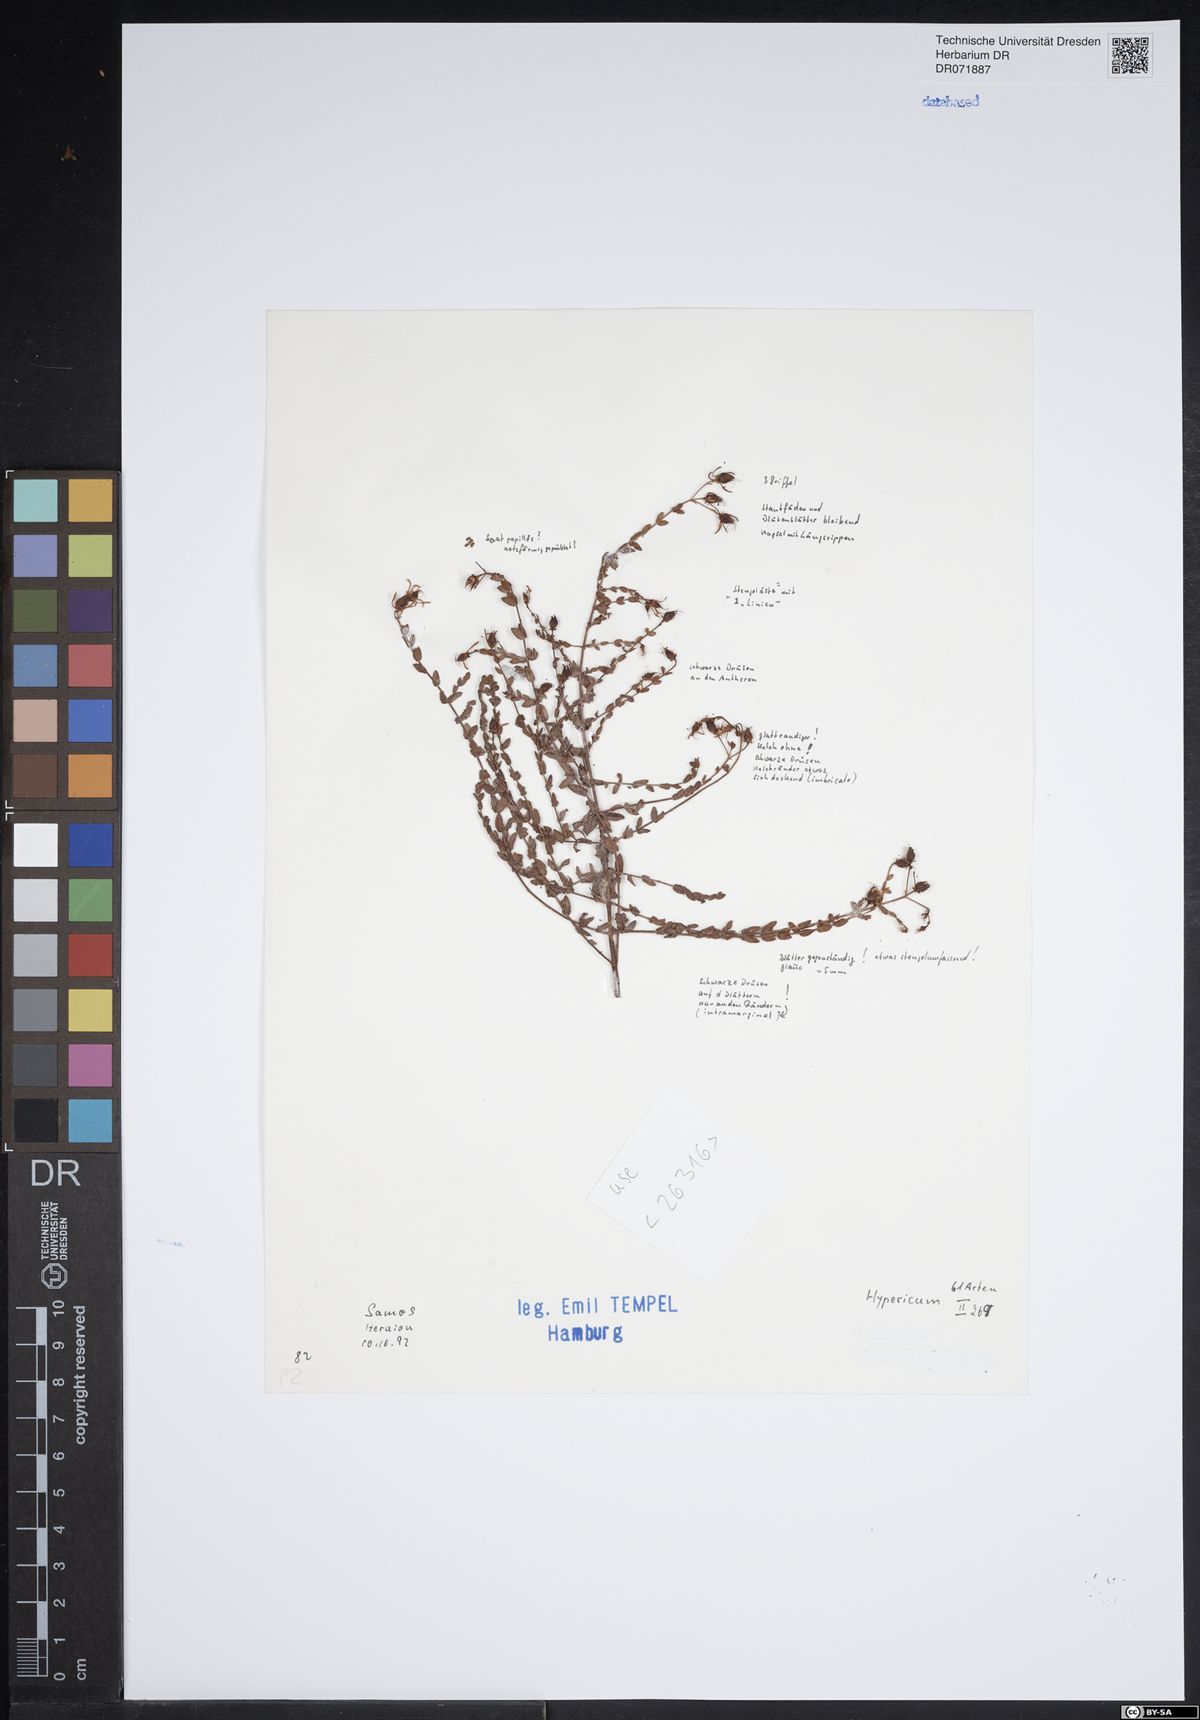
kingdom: Plantae
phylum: Tracheophyta
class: Magnoliopsida
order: Malpighiales
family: Hypericaceae
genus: Hypericum
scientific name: Hypericum
